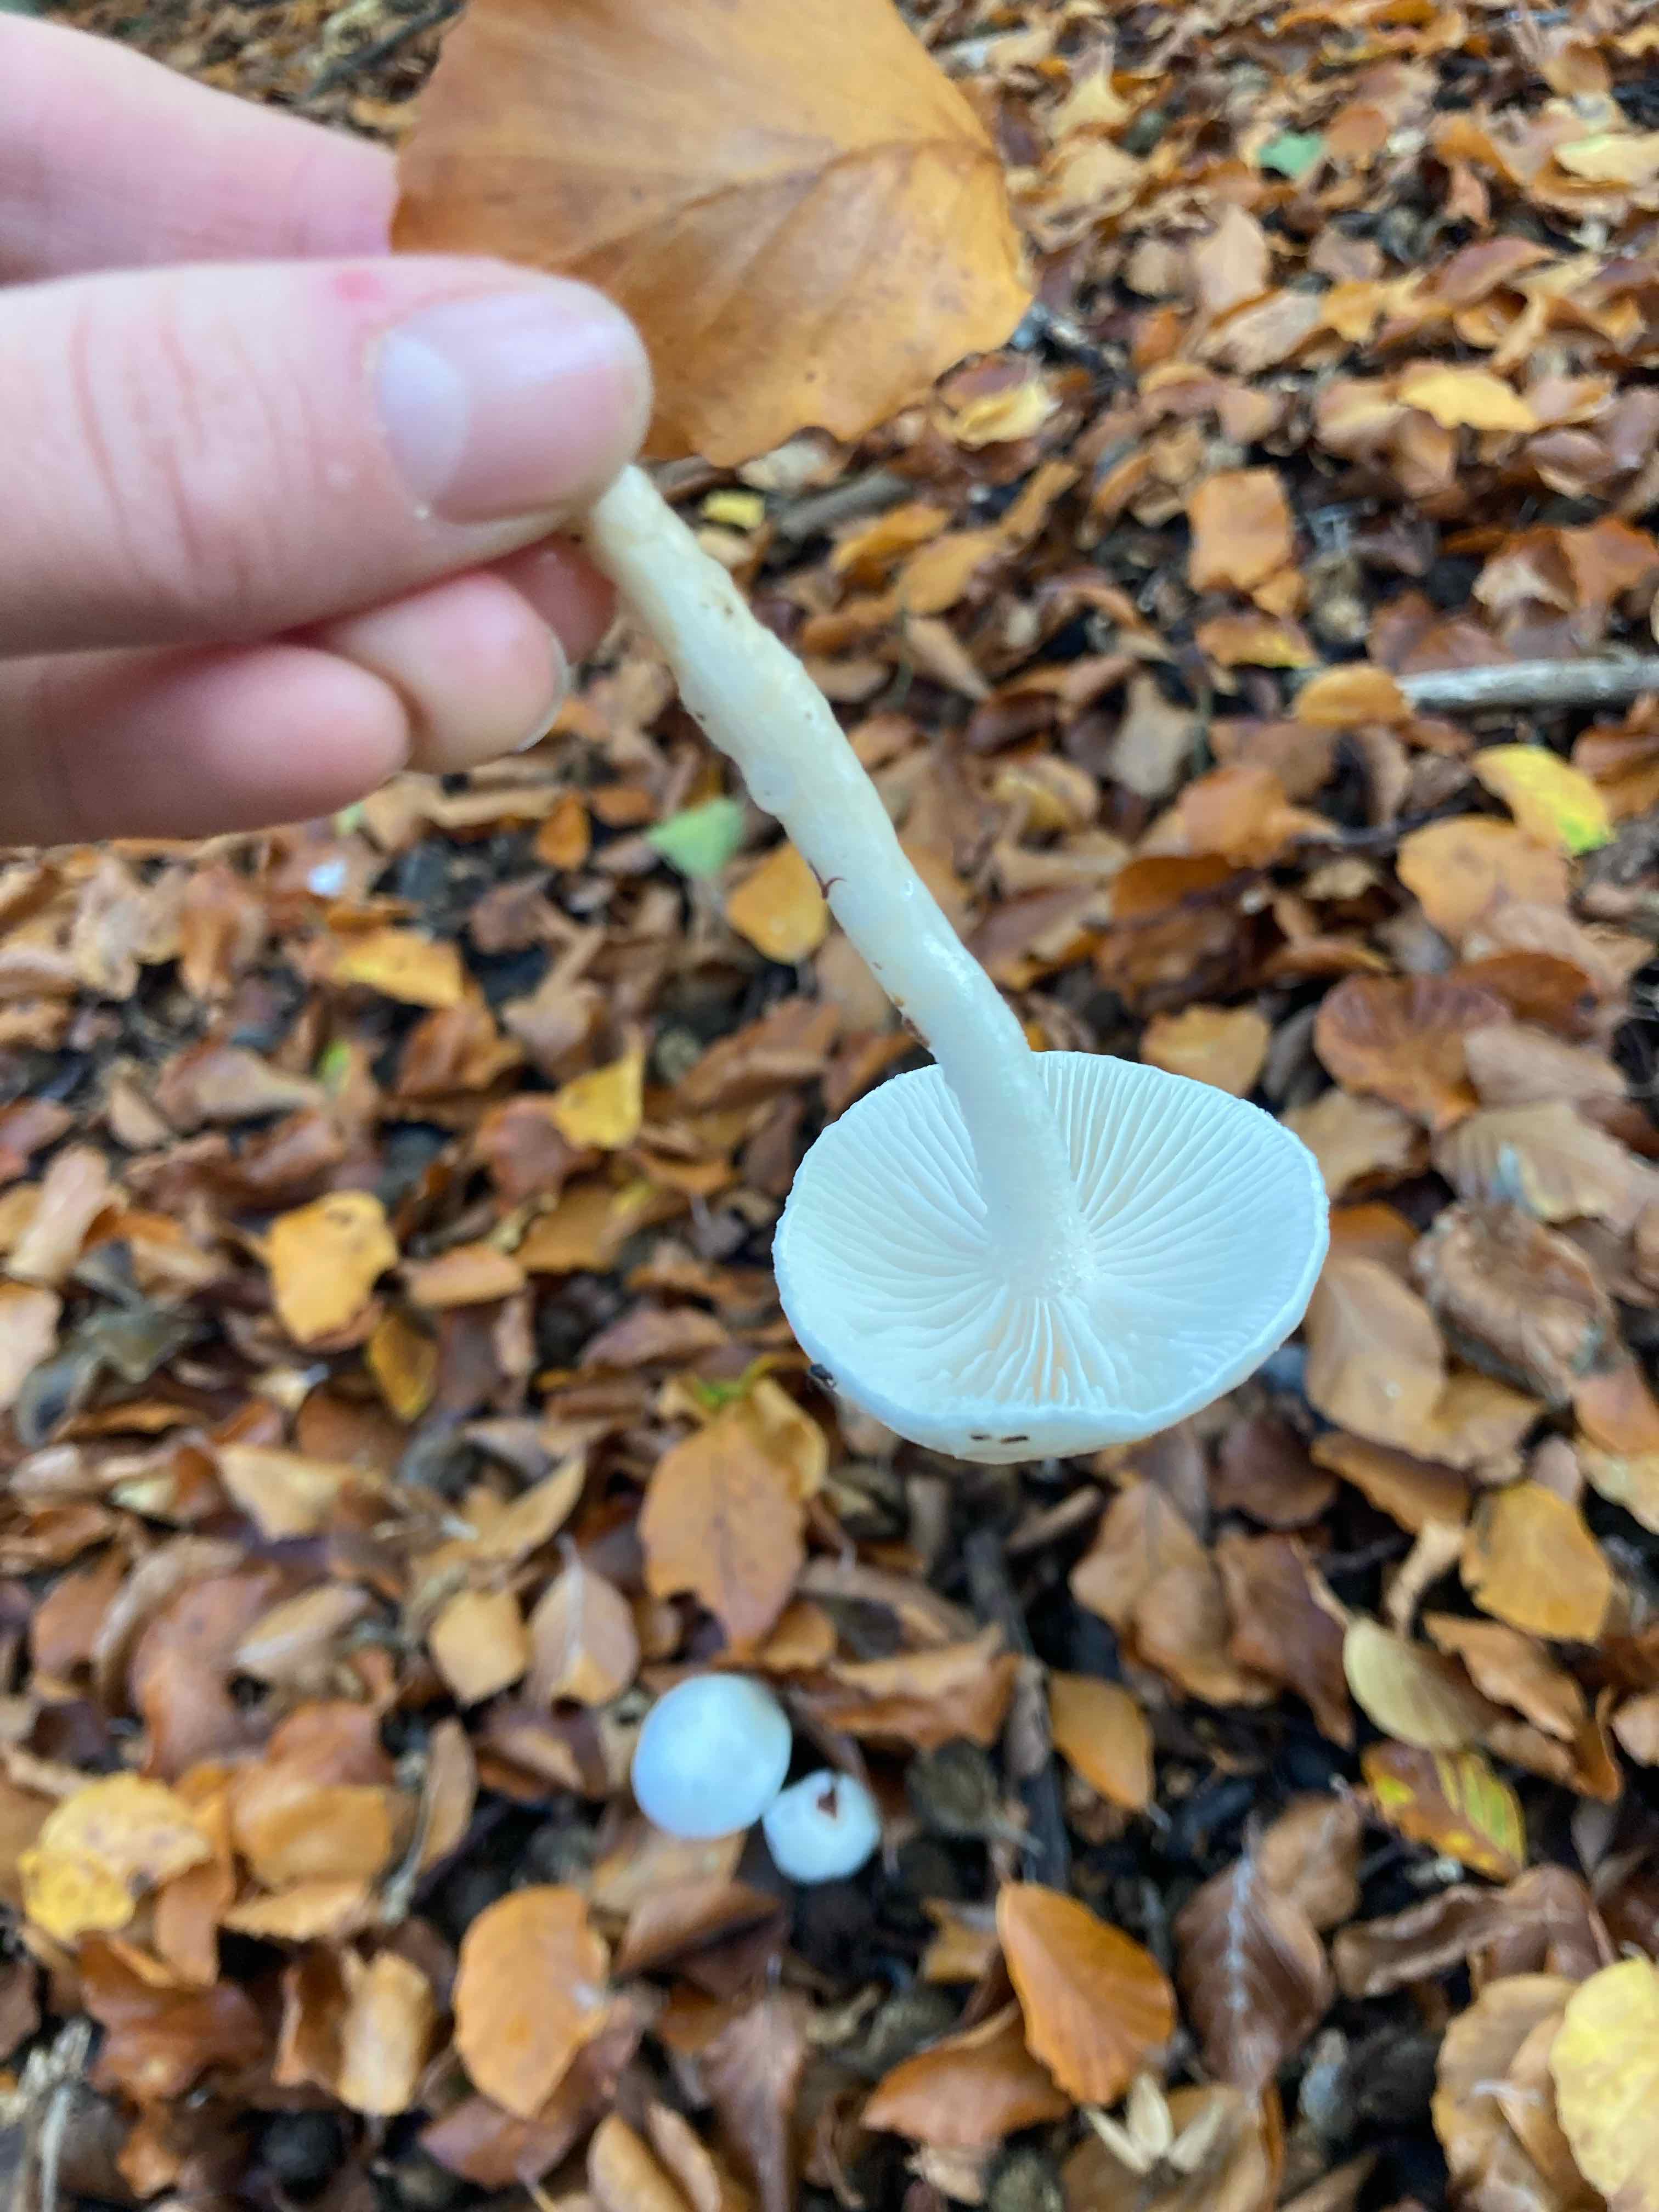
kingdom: Fungi
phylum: Basidiomycota
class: Agaricomycetes
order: Agaricales
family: Hygrophoraceae
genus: Hygrophorus
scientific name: Hygrophorus eburneus
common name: elfenbens-sneglehat
